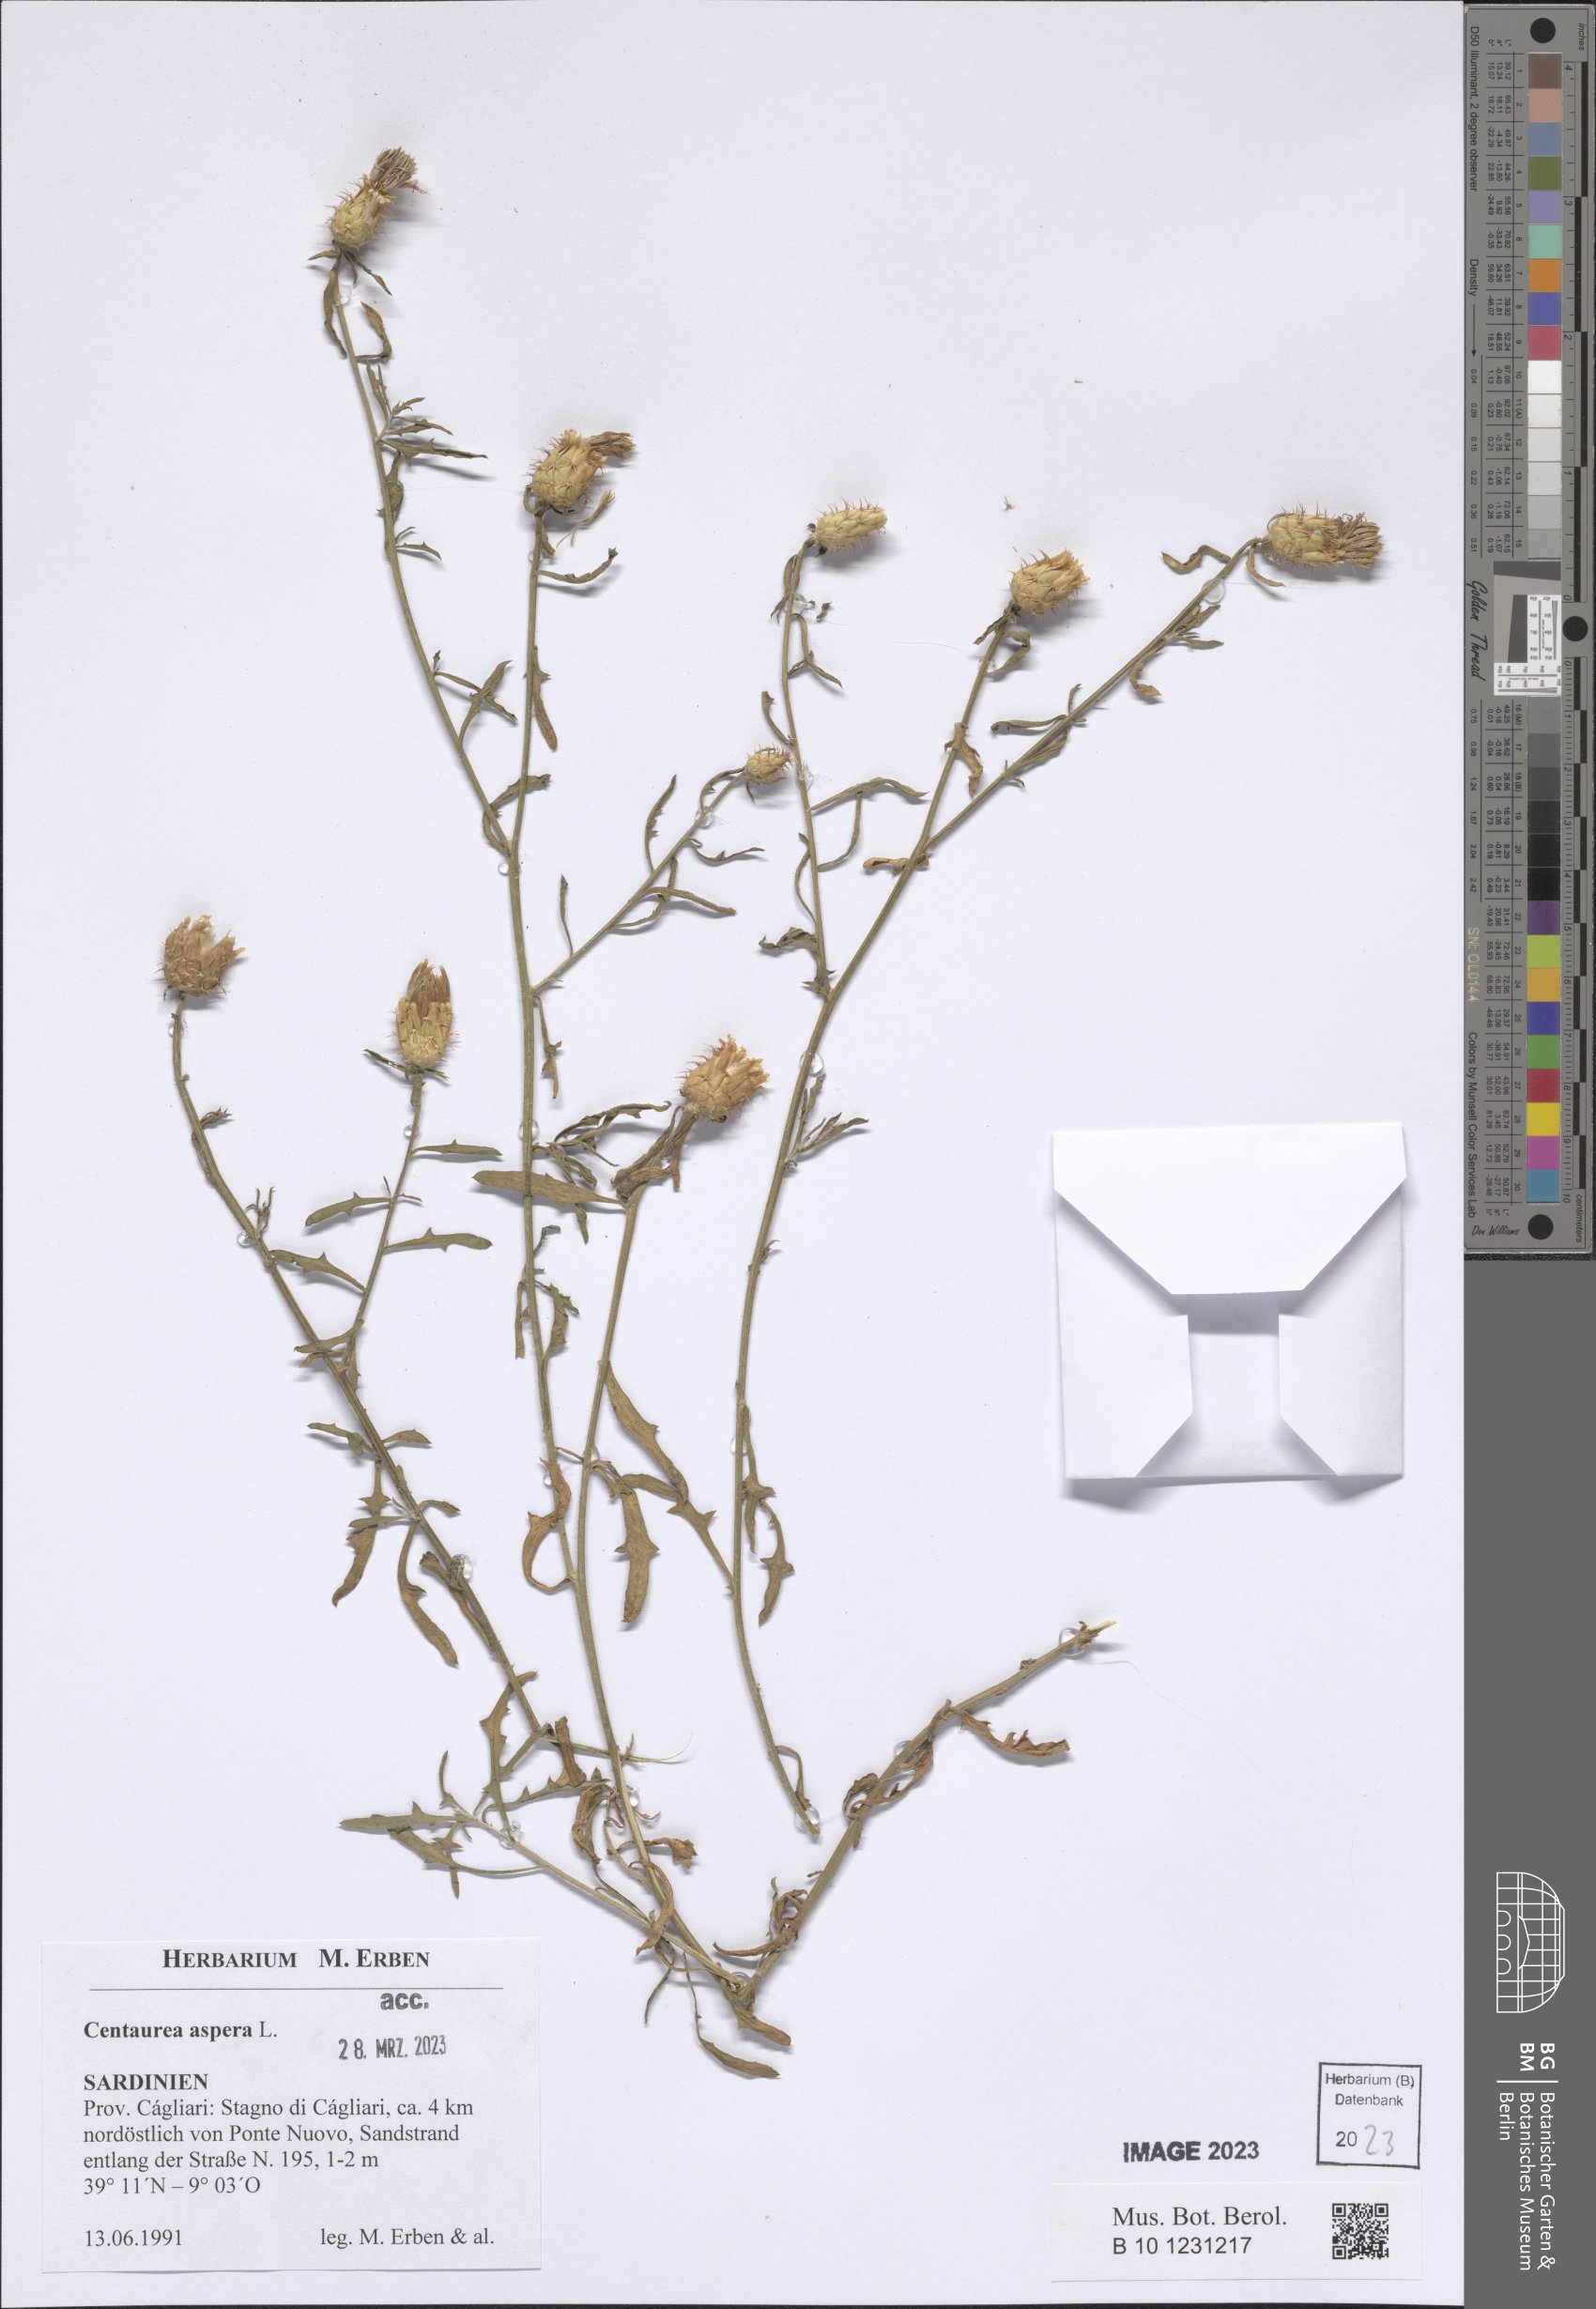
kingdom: Plantae
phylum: Tracheophyta
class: Magnoliopsida
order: Asterales
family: Asteraceae
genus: Centaurea
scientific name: Centaurea aspera
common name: Rough star-thistle
